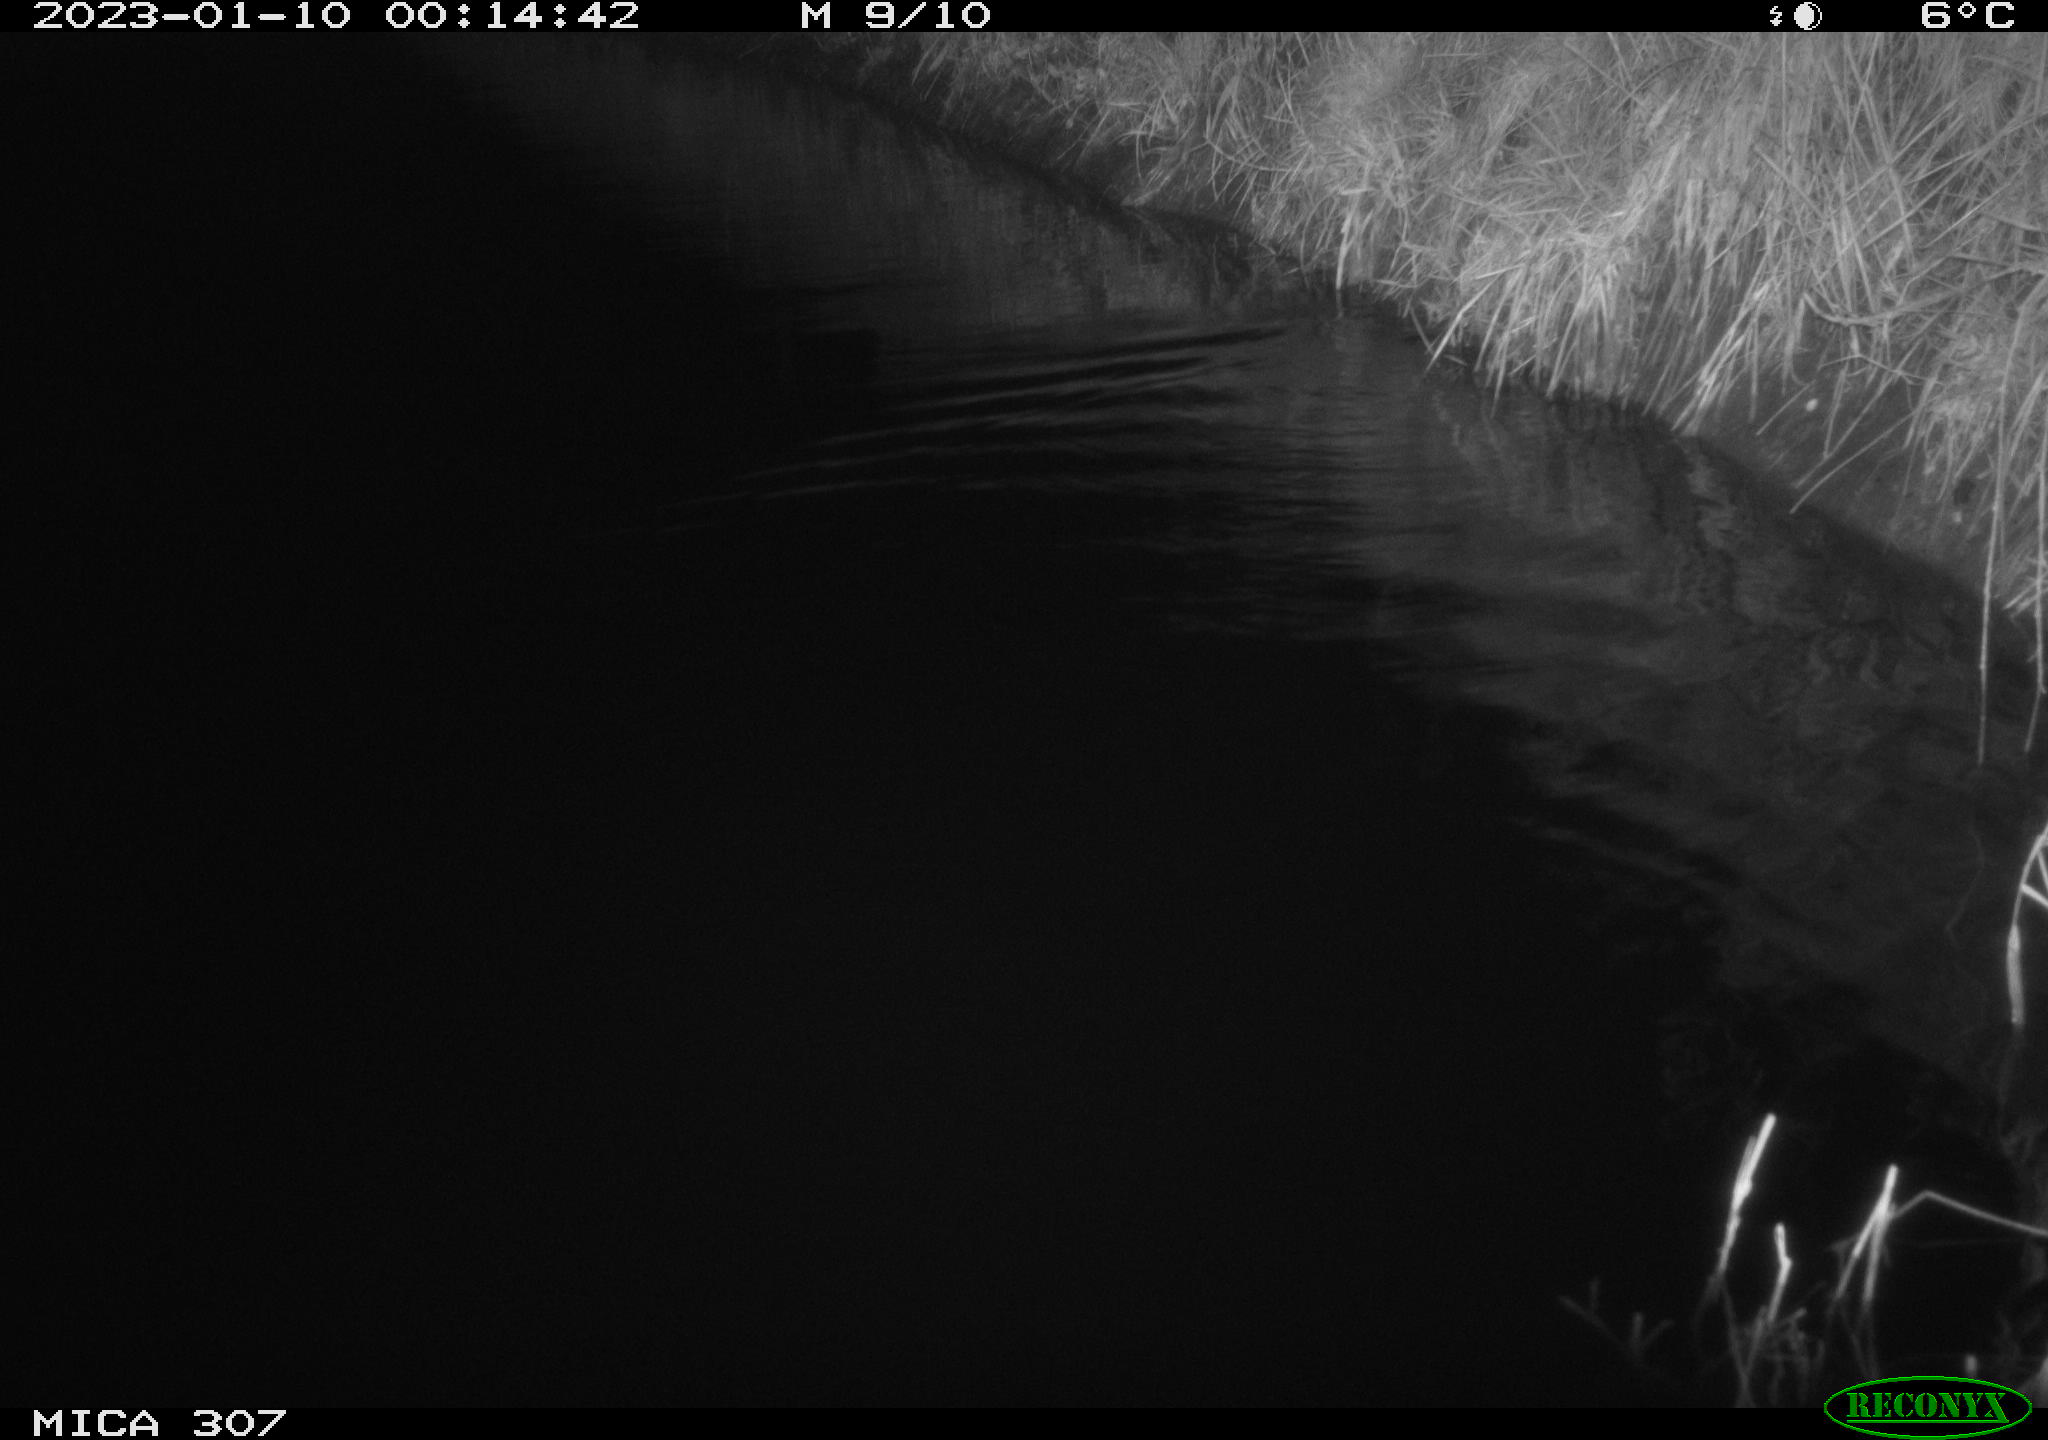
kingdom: Animalia
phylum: Chordata
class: Mammalia
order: Rodentia
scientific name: Rodentia
